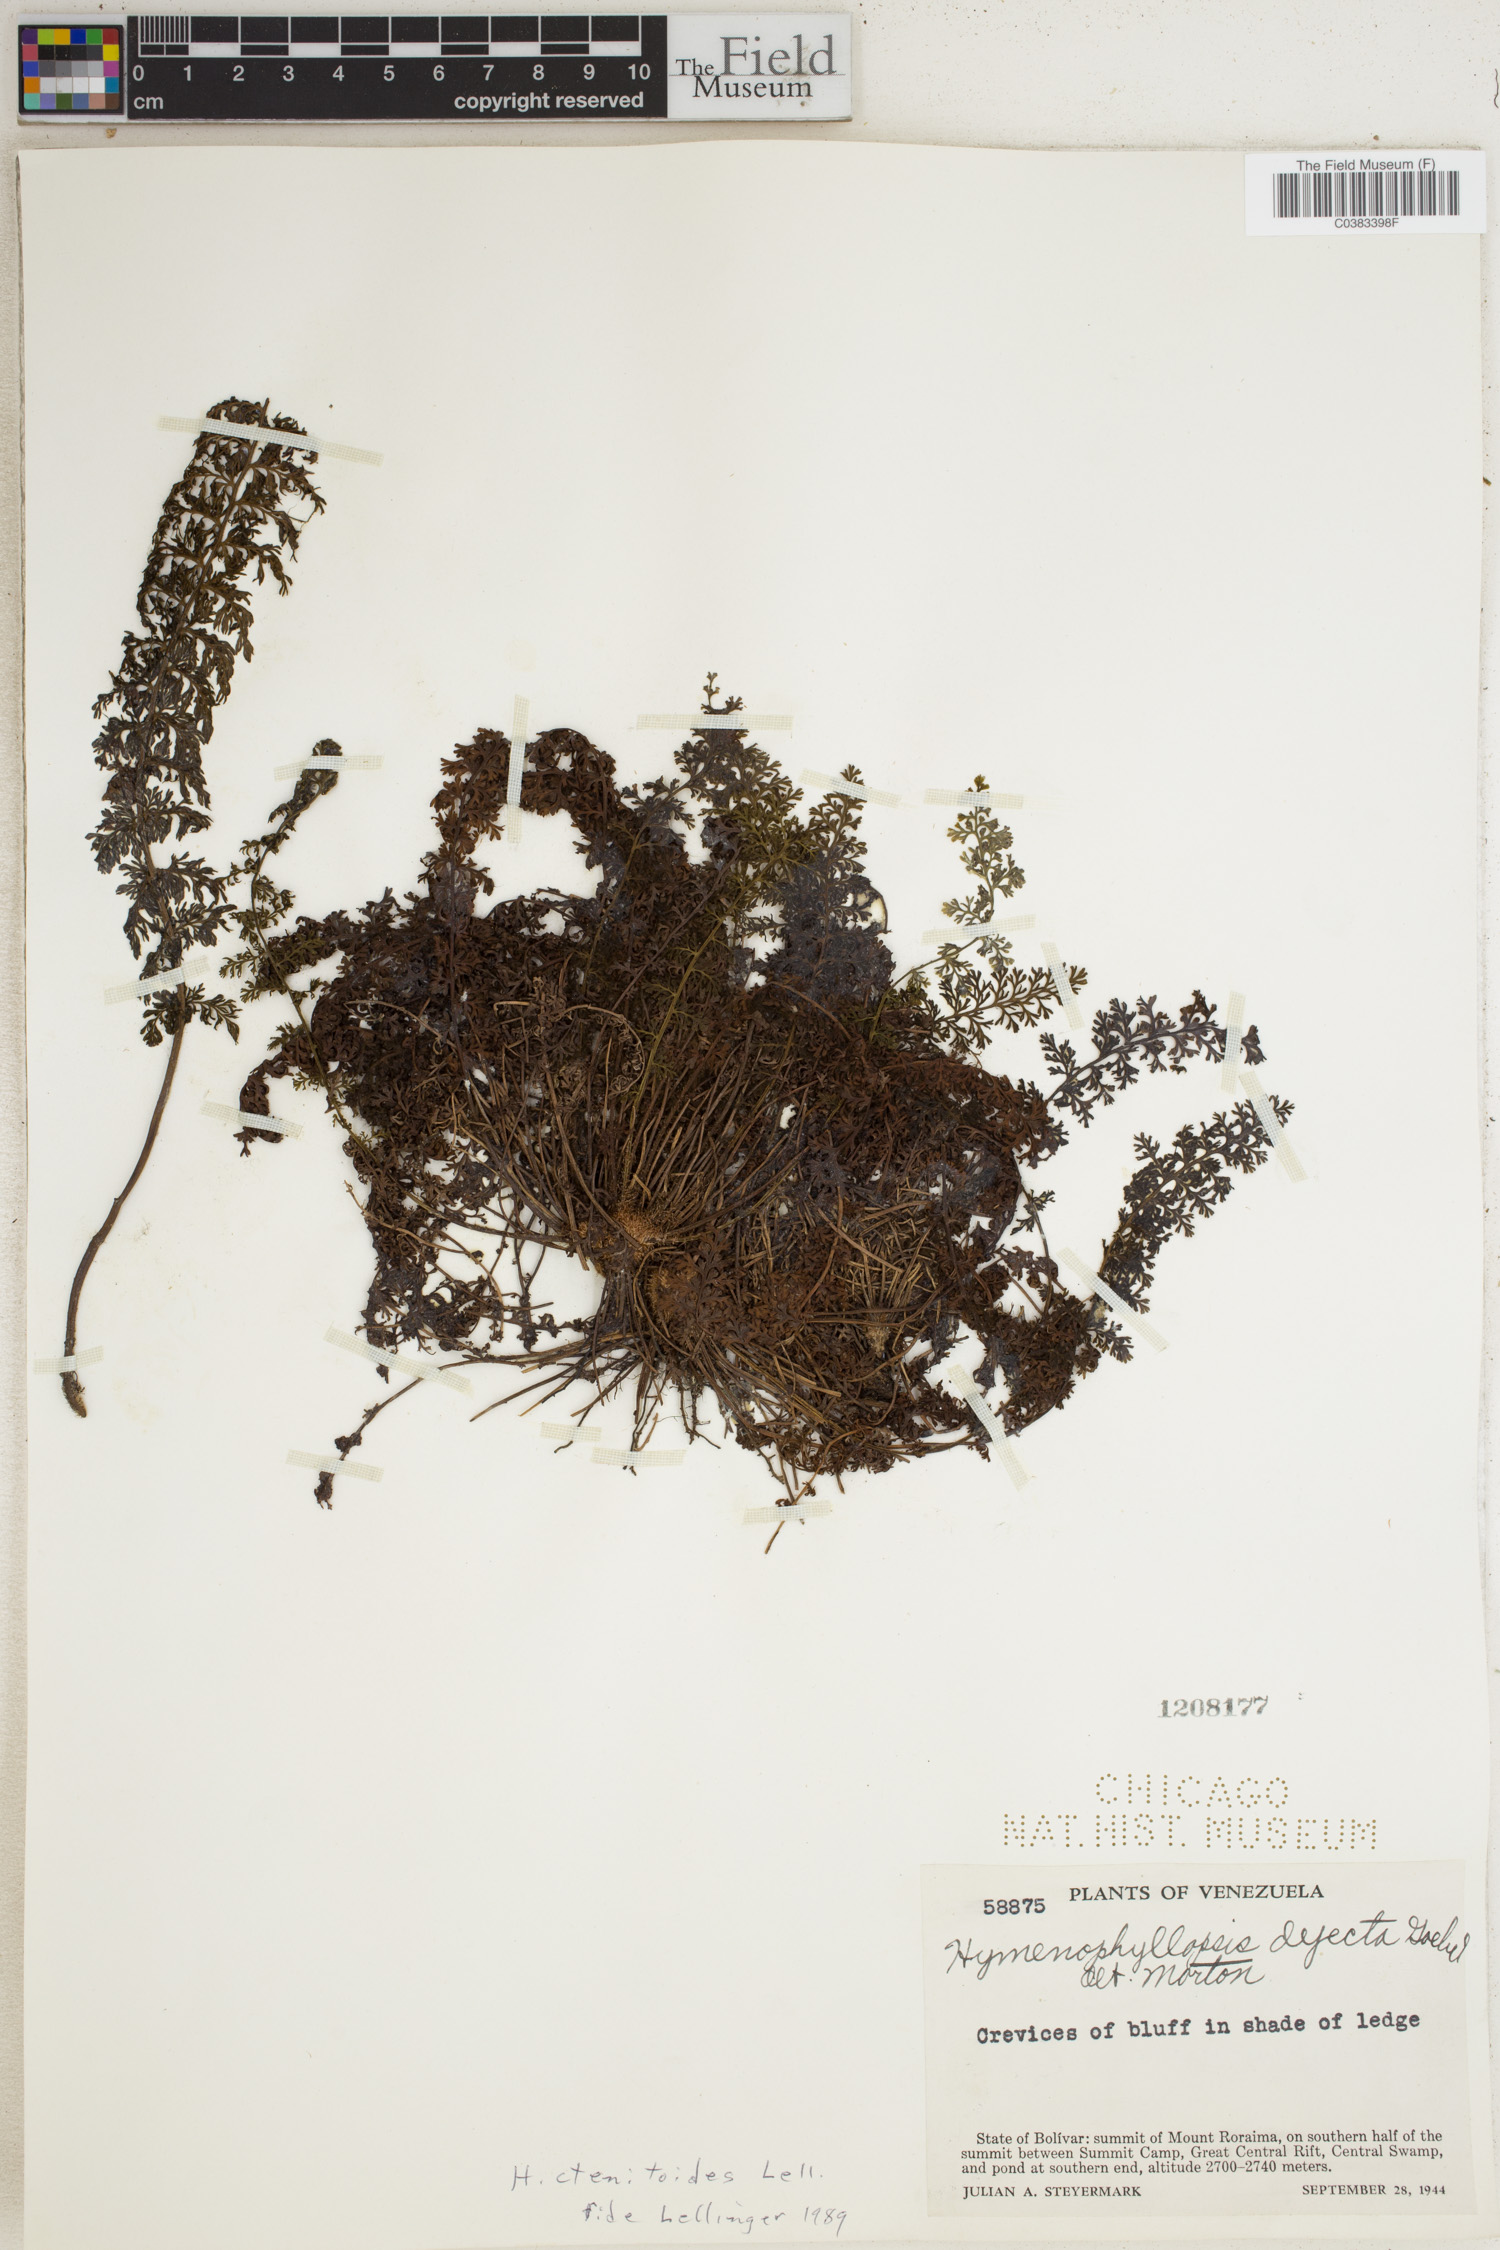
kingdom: Plantae
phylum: Tracheophyta
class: Polypodiopsida
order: Cyatheales
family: Cyatheaceae
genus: Cyathea
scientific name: Cyathea ctenitoides
